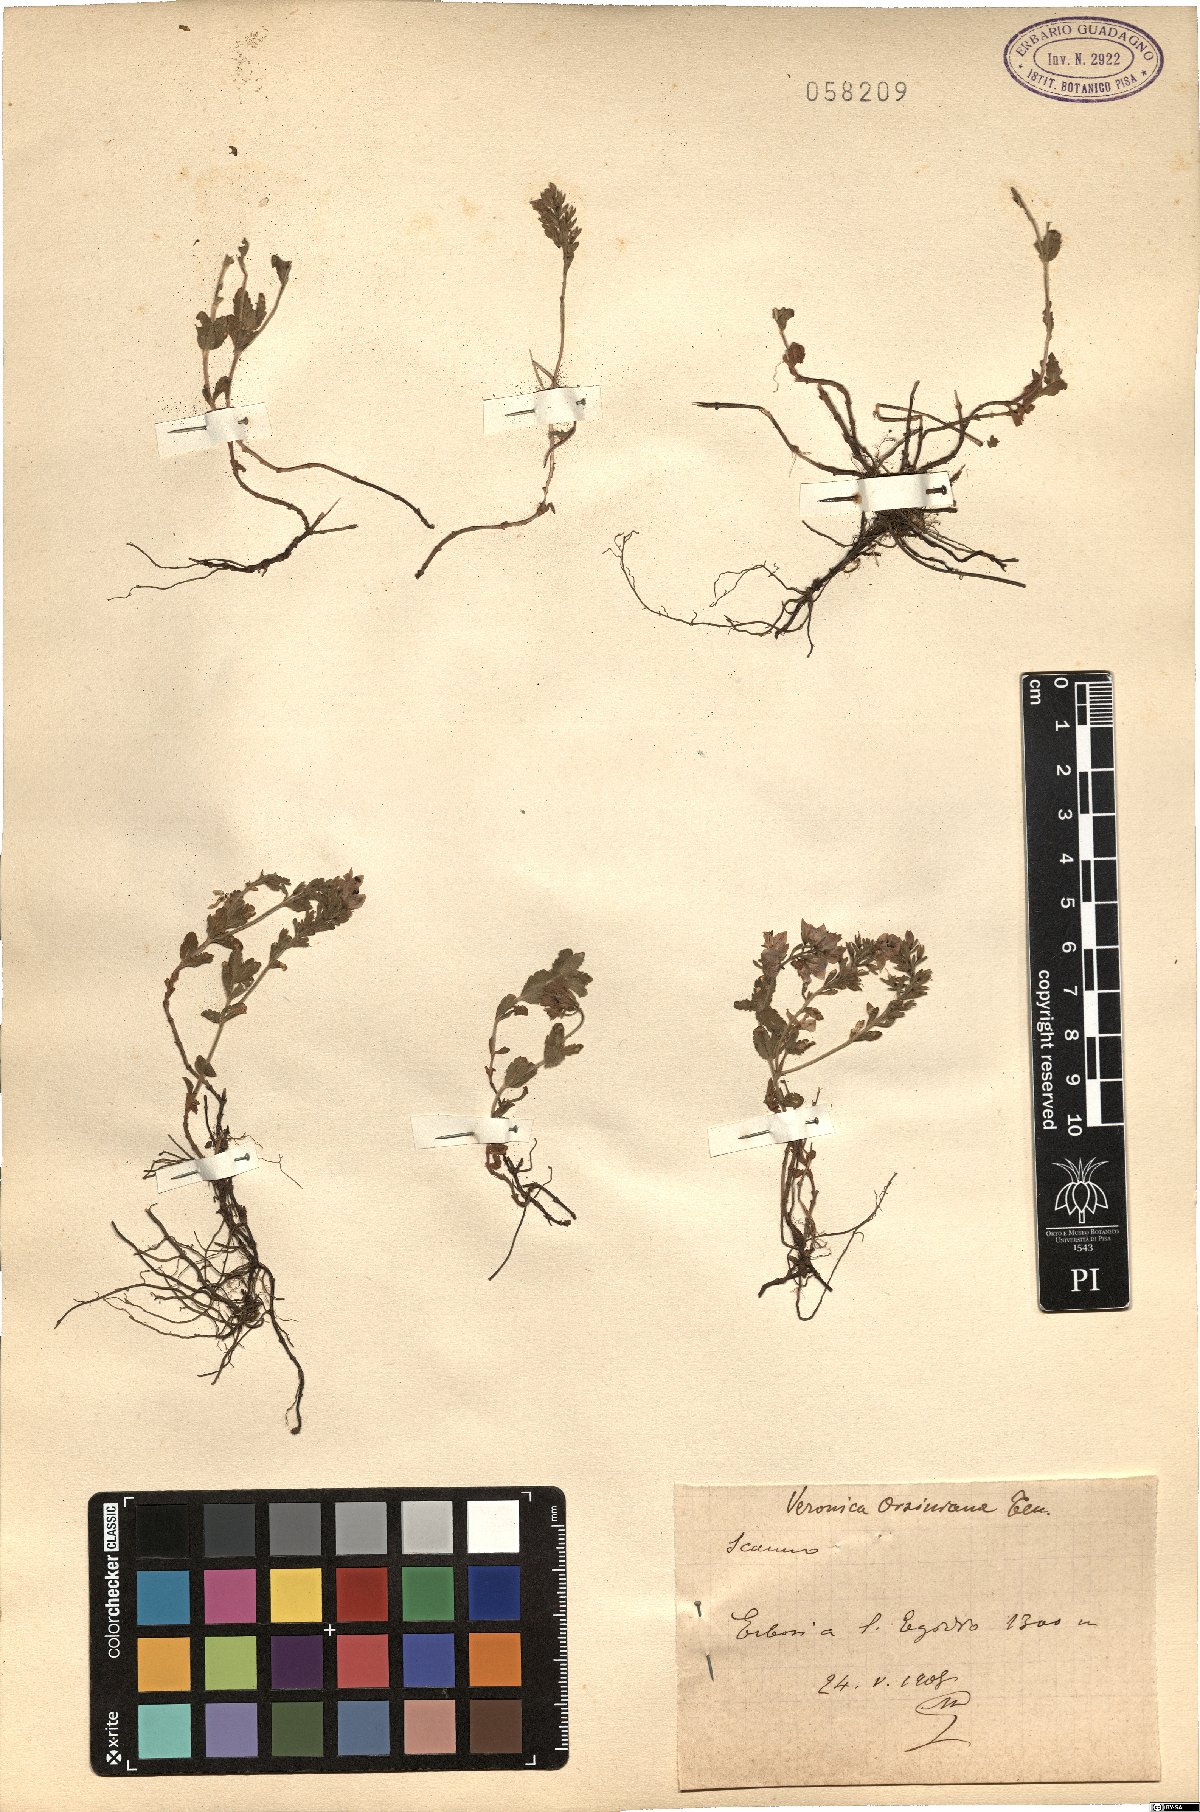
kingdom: Plantae
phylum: Tracheophyta
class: Magnoliopsida
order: Lamiales
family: Plantaginaceae
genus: Veronica
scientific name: Veronica orsiniana
